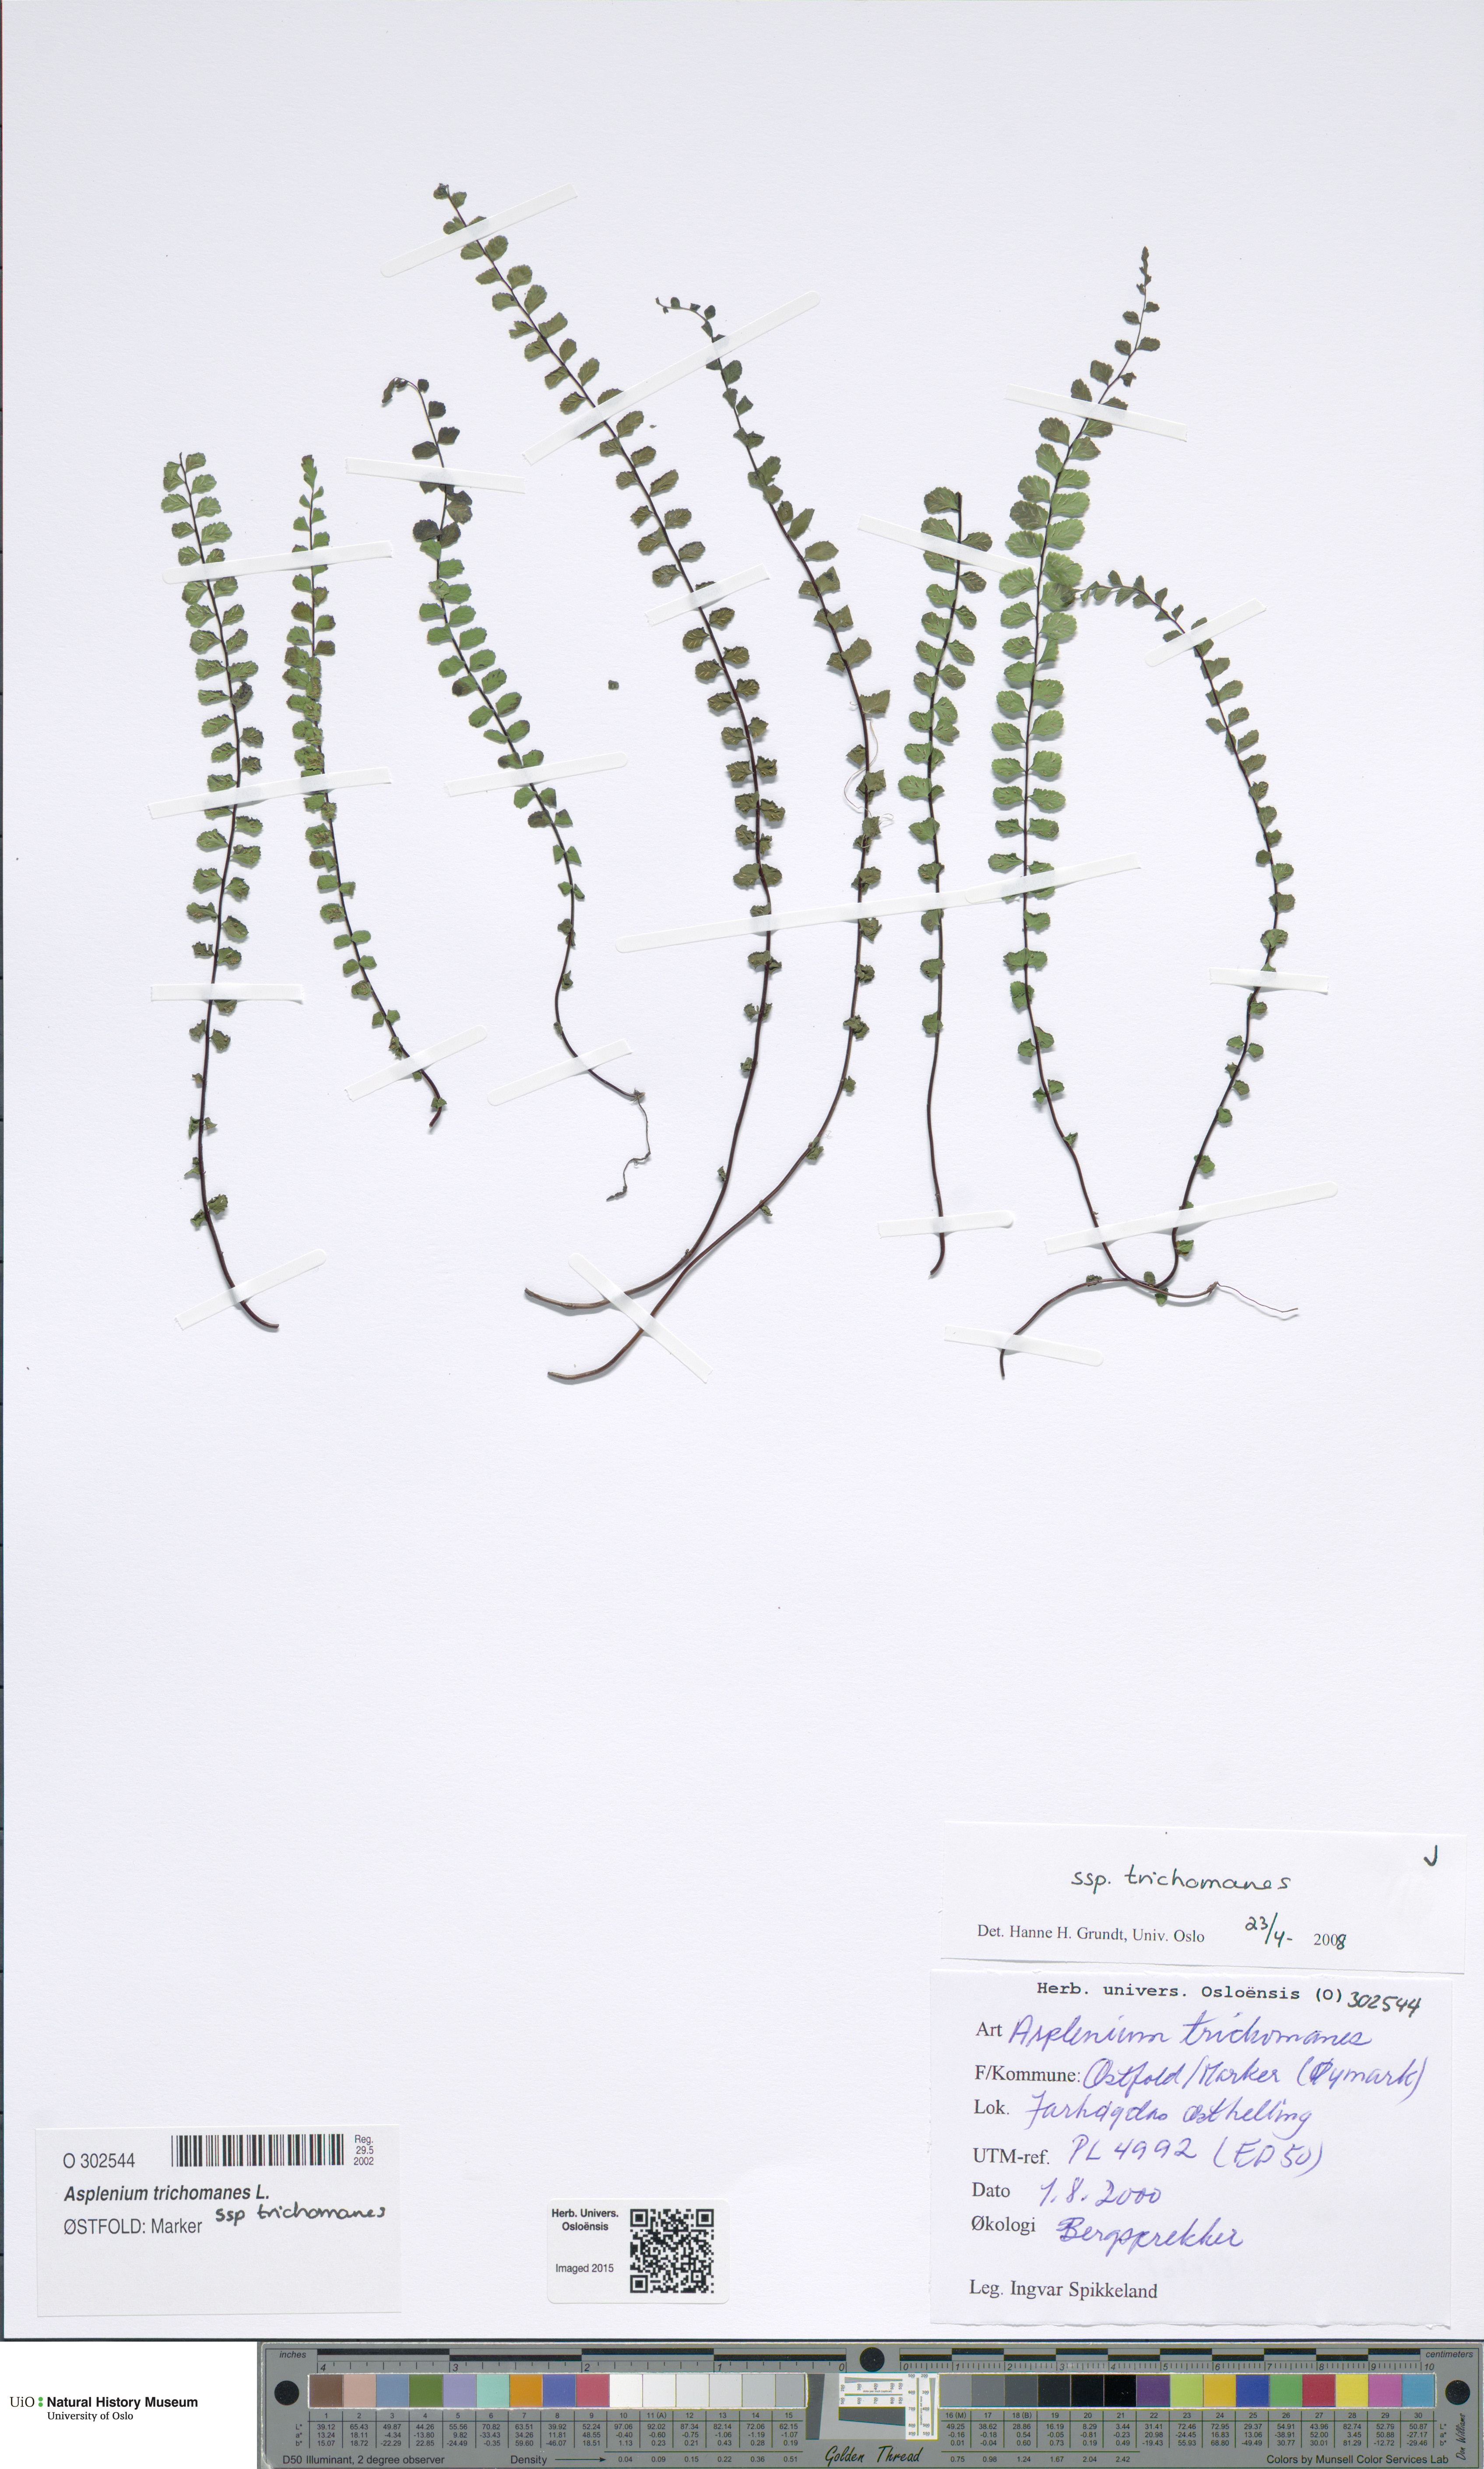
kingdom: Plantae
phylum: Tracheophyta
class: Polypodiopsida
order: Polypodiales
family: Aspleniaceae
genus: Asplenium
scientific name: Asplenium trichomanes
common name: Maidenhair spleenwort
